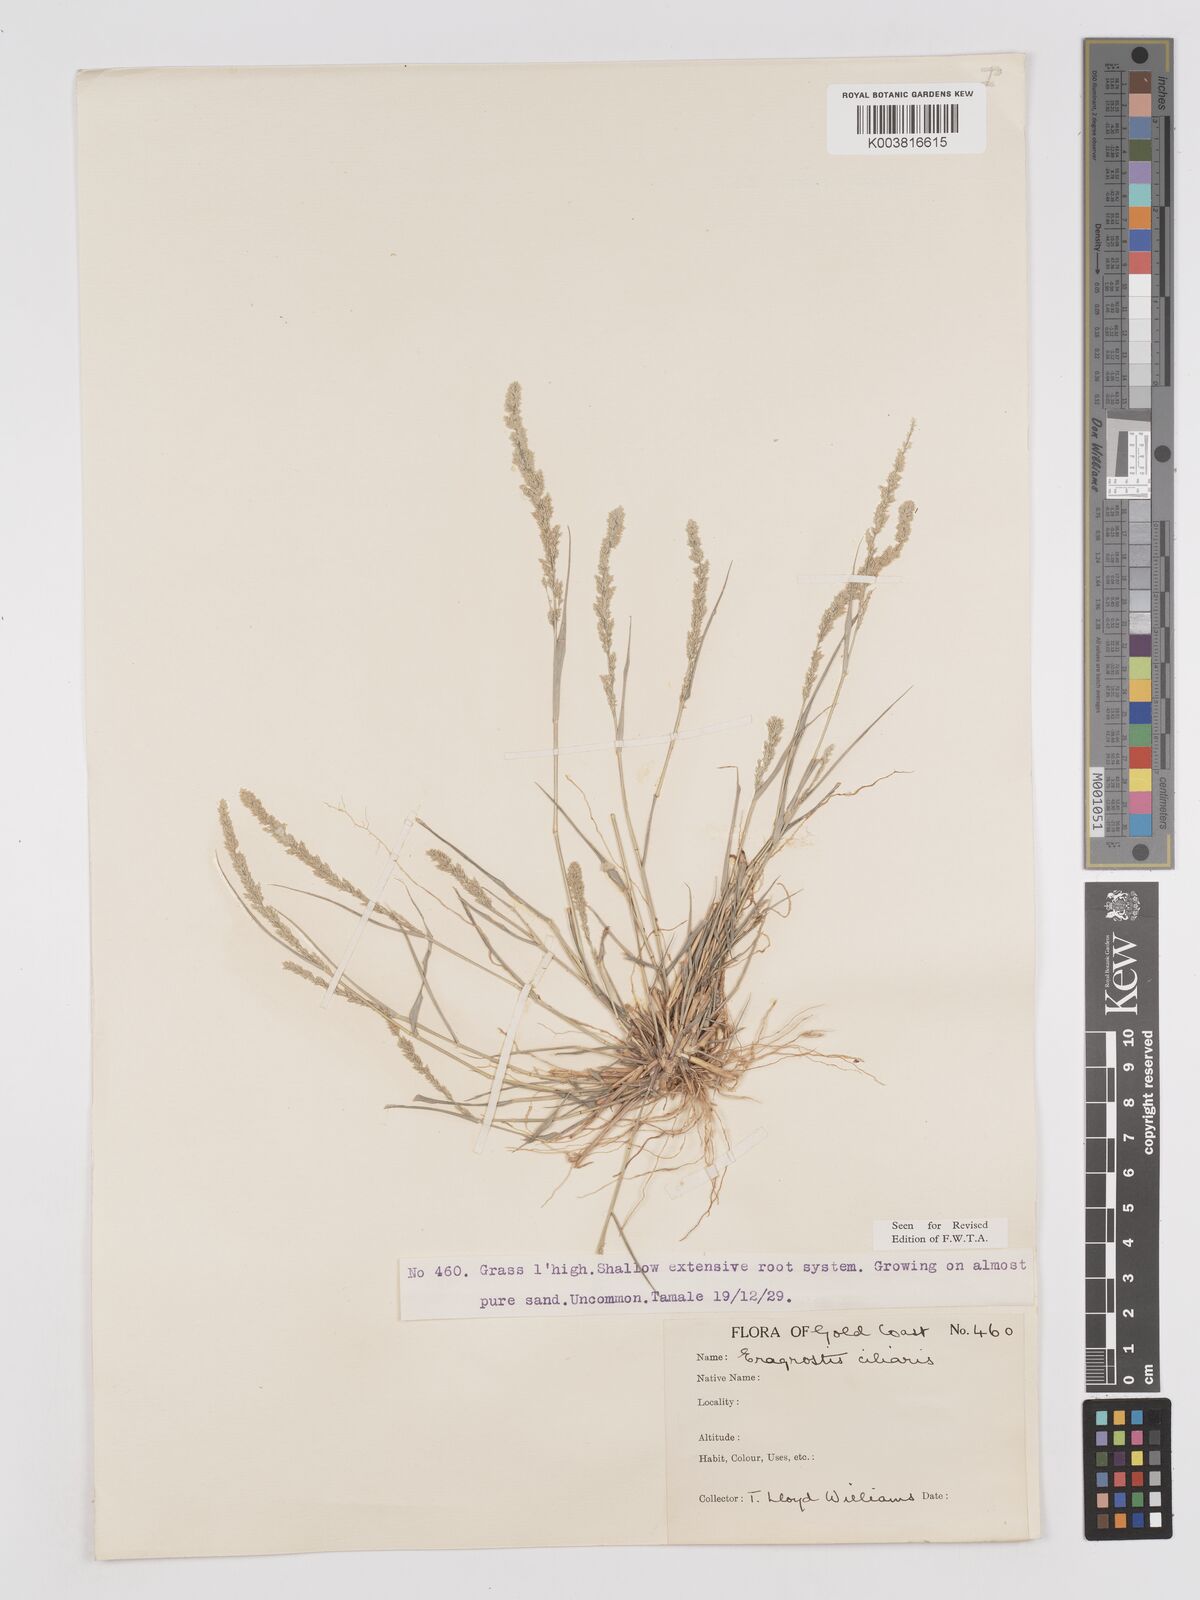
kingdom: Plantae
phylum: Tracheophyta
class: Liliopsida
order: Poales
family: Poaceae
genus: Eragrostis
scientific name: Eragrostis ciliaris
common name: Gophertail lovegrass
